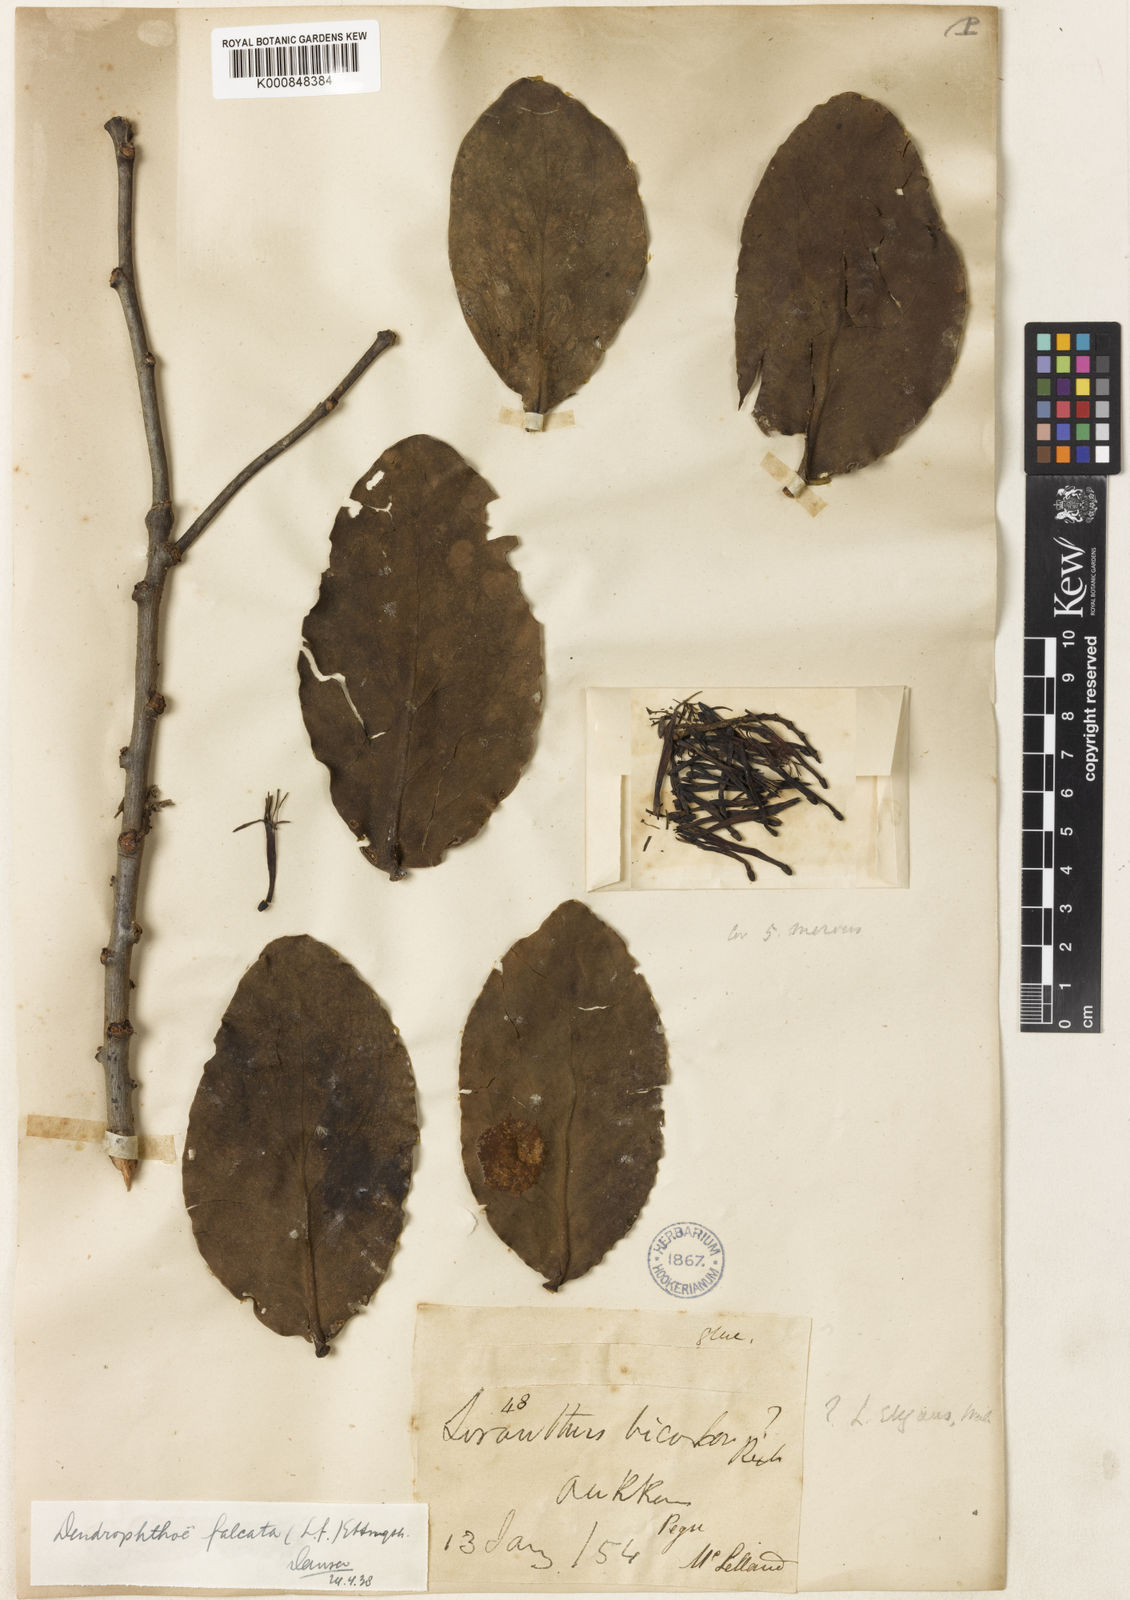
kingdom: Plantae
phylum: Tracheophyta
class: Magnoliopsida
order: Santalales
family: Loranthaceae
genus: Dendrophthoe
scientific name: Dendrophthoe
